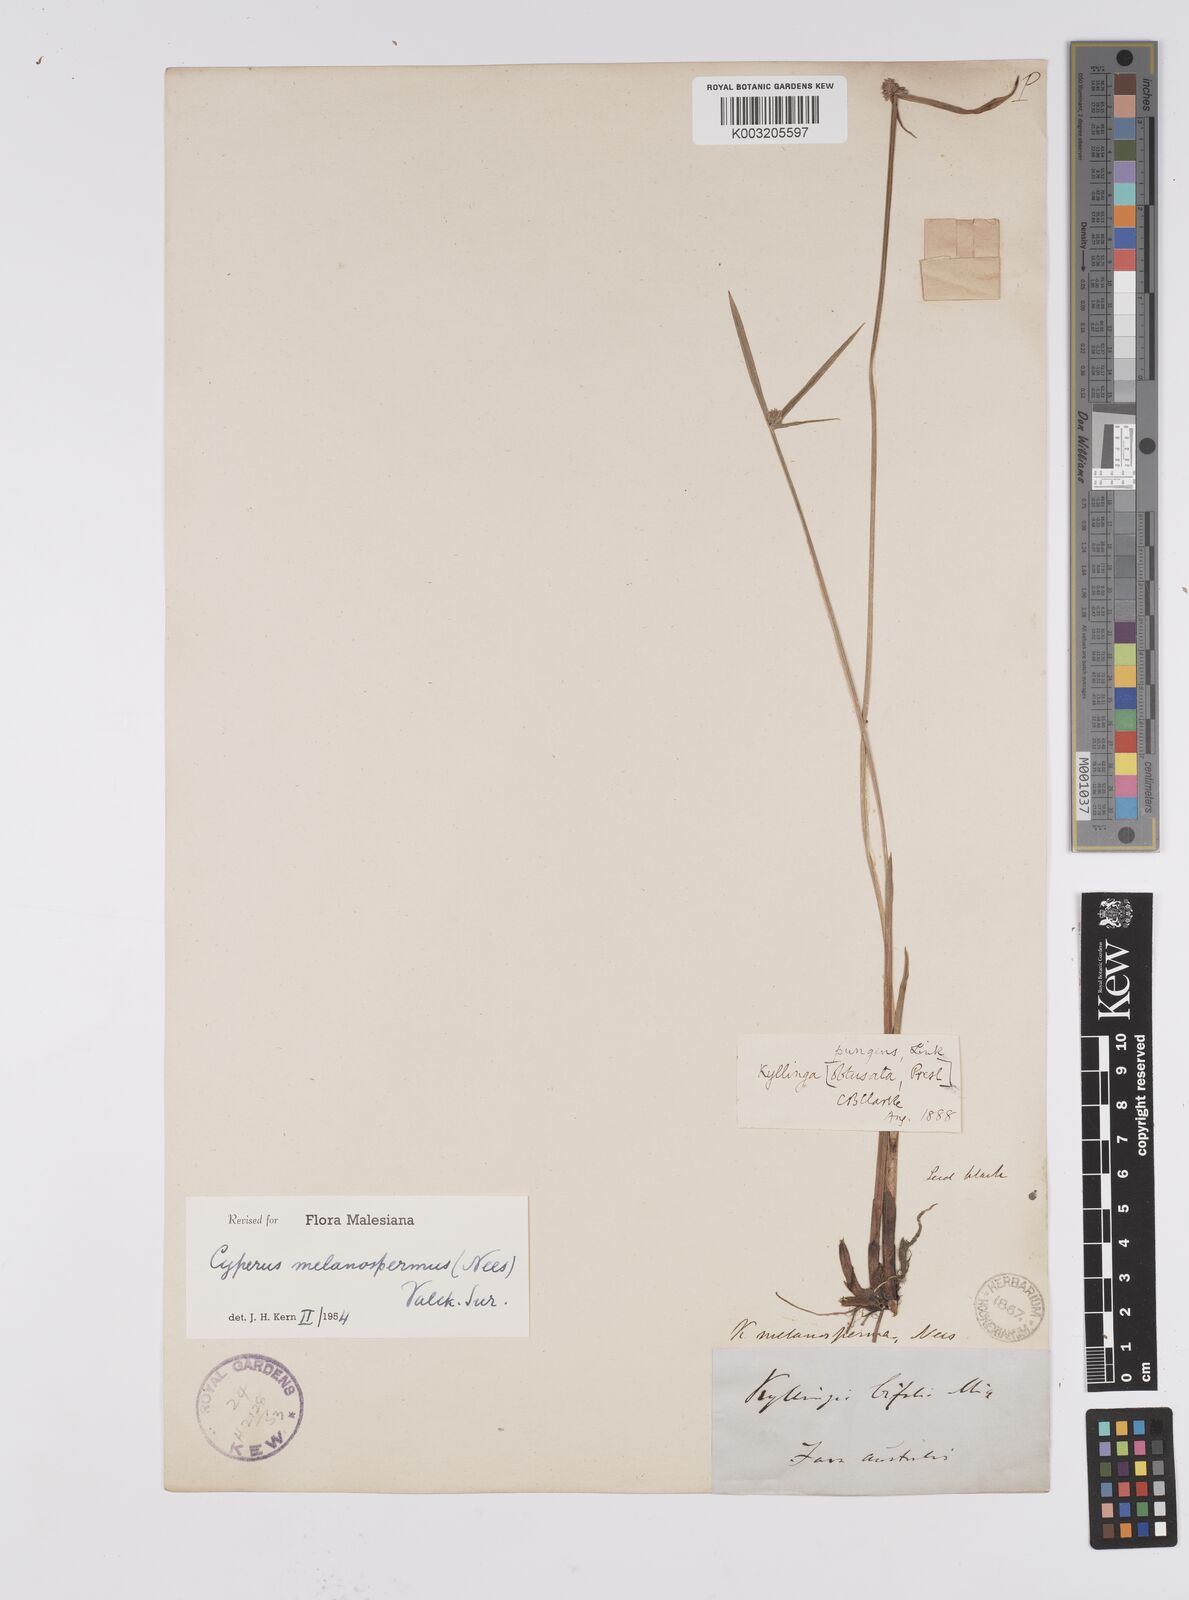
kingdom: Plantae
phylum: Tracheophyta
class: Liliopsida
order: Poales
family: Cyperaceae
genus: Cyperus
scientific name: Cyperus melanospermus
